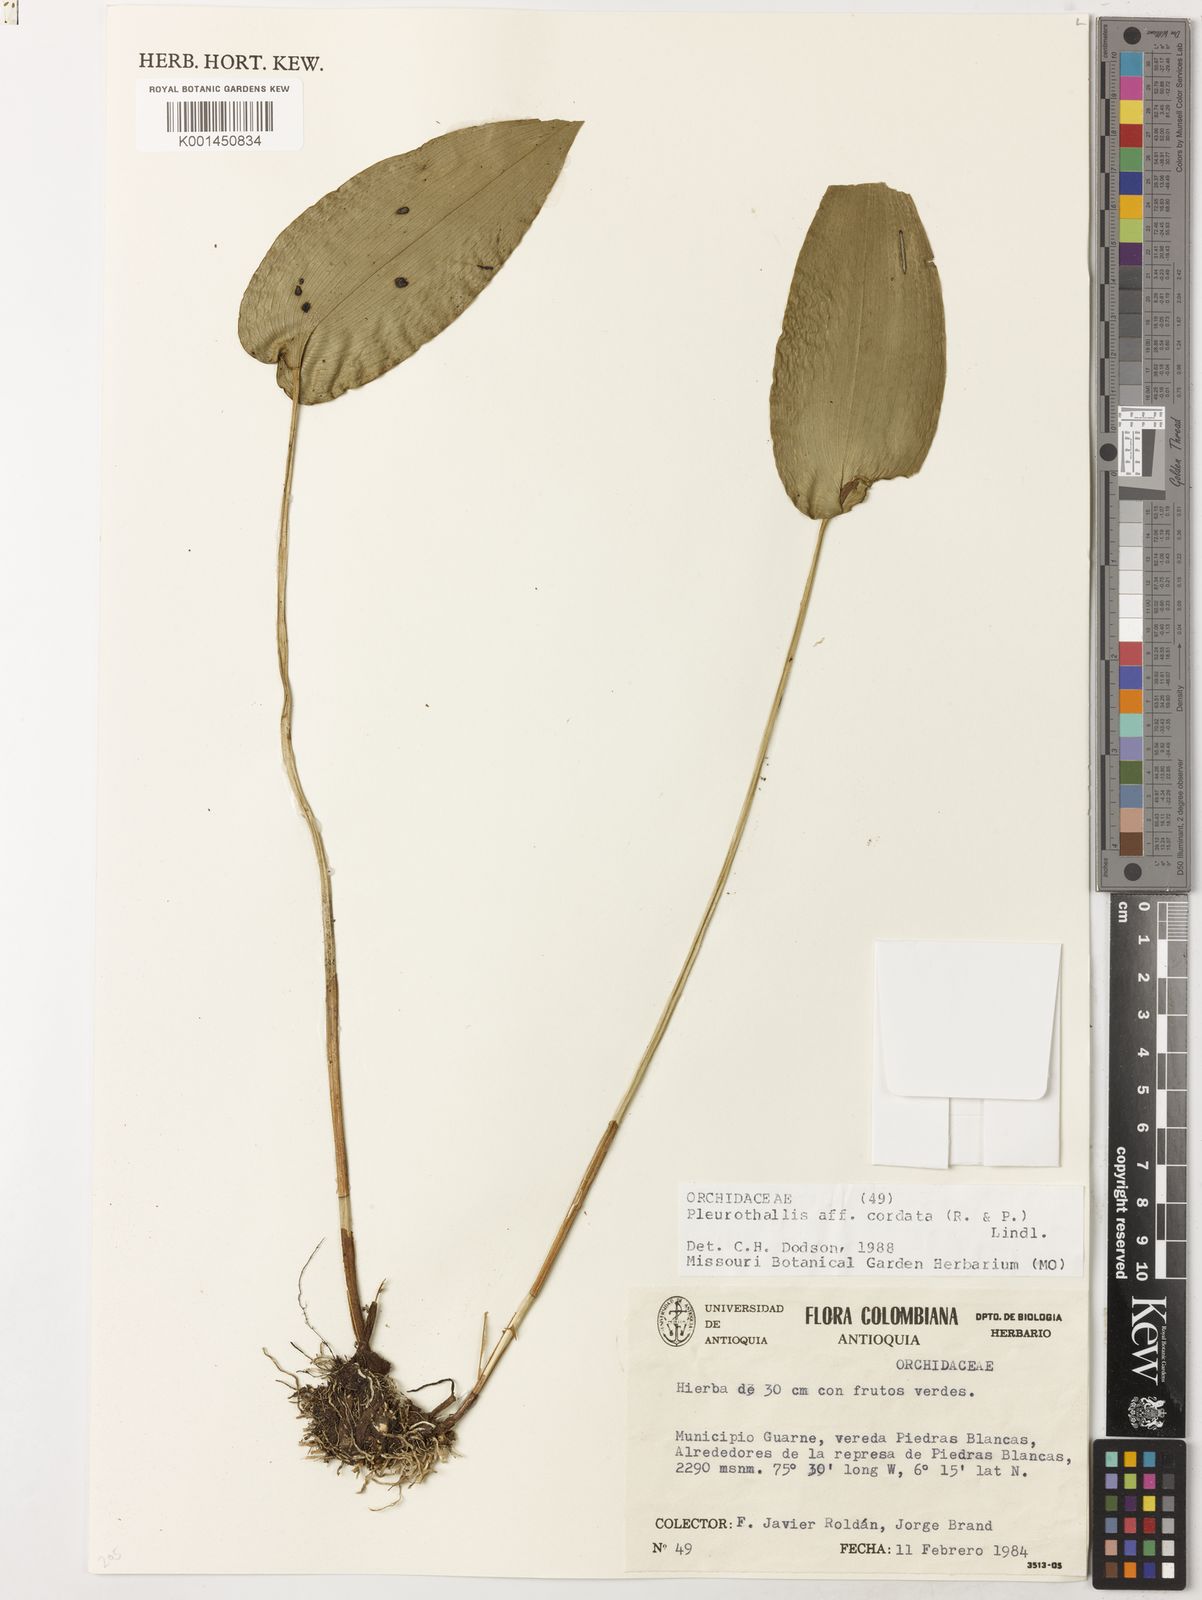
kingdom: Plantae
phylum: Tracheophyta
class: Liliopsida
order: Asparagales
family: Orchidaceae
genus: Pleurothallis
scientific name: Pleurothallis cordata
